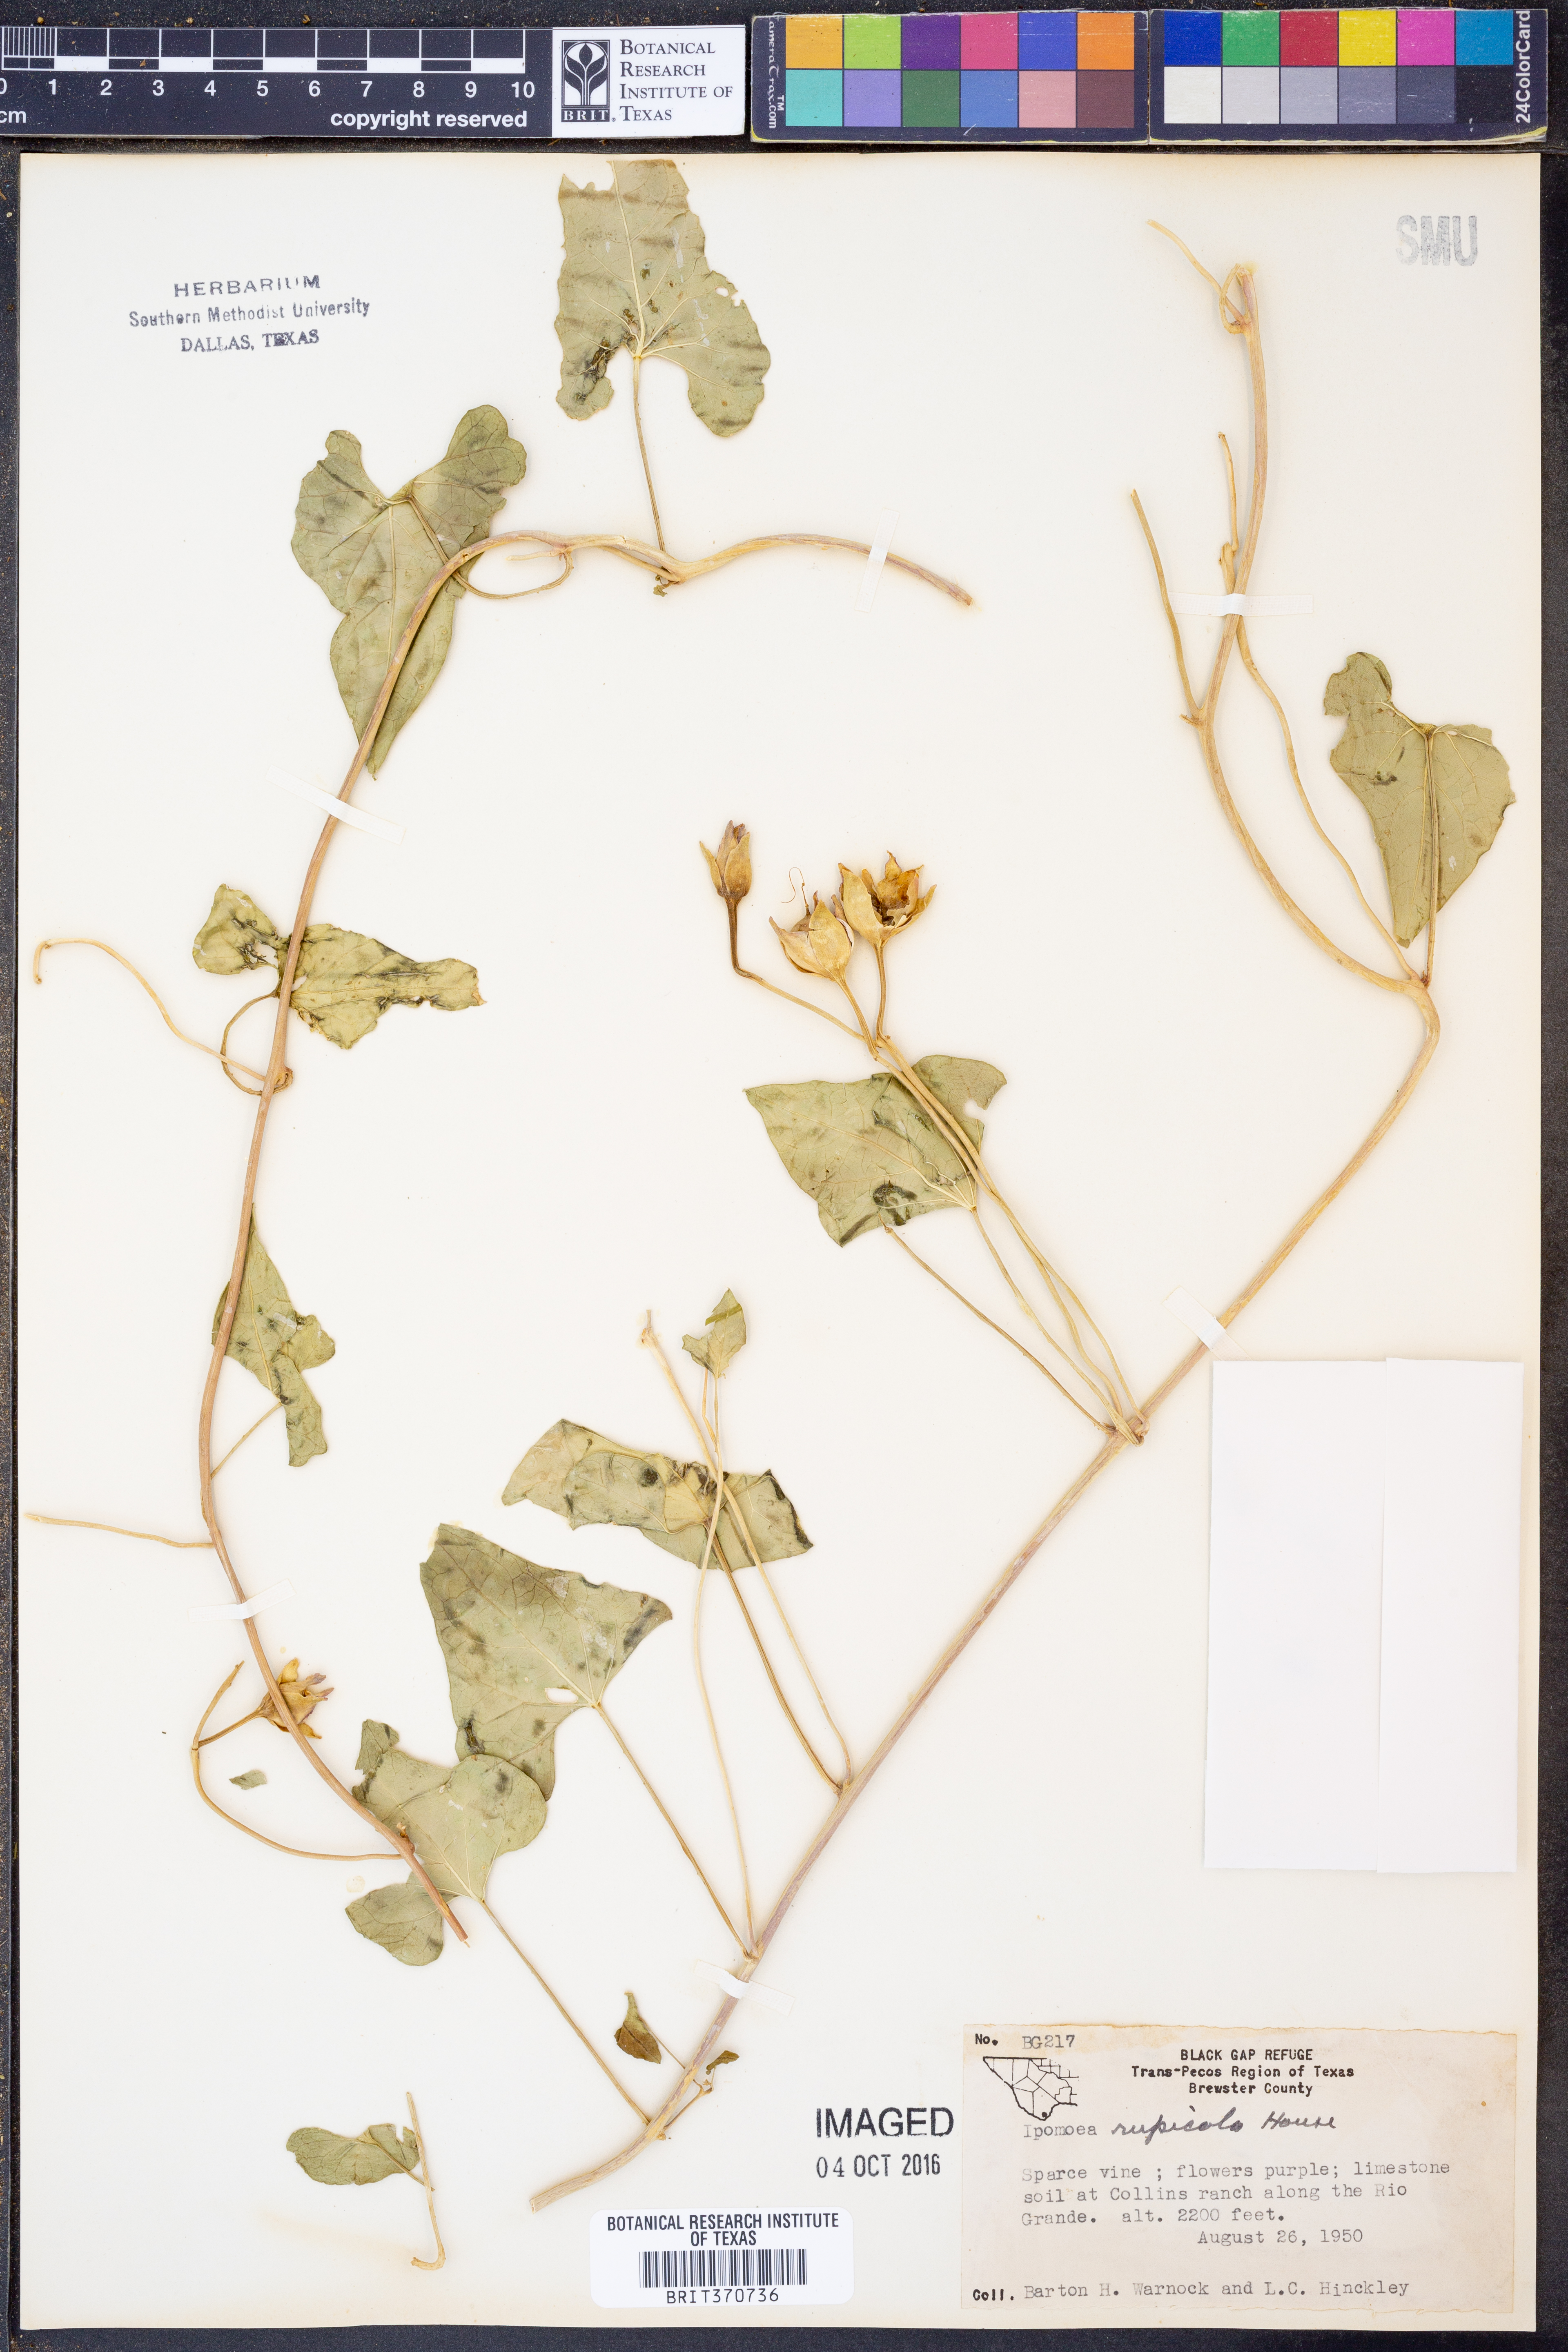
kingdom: Plantae
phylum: Tracheophyta
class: Magnoliopsida
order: Solanales
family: Convolvulaceae
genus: Ipomoea
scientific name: Ipomoea rupicola
